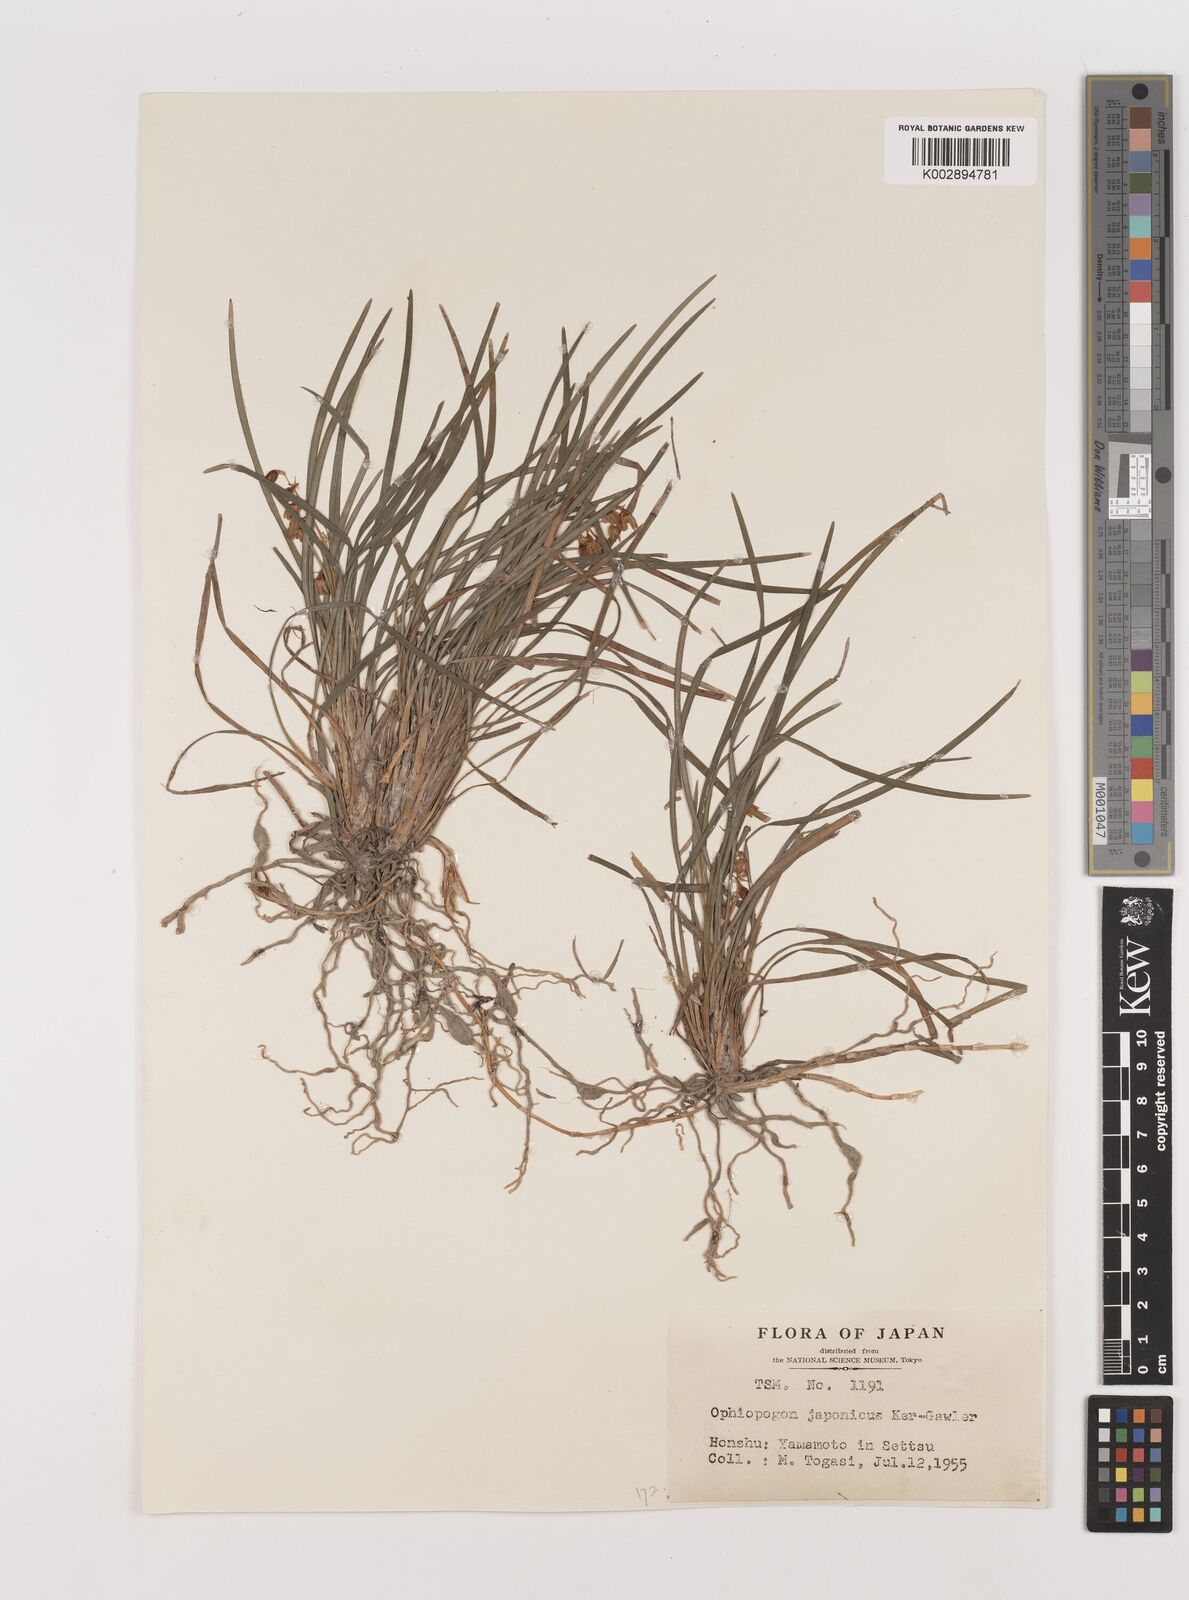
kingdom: Plantae
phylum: Tracheophyta
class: Liliopsida
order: Asparagales
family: Asparagaceae
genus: Ophiopogon
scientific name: Ophiopogon japonicus
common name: Dwarf lilyturf
